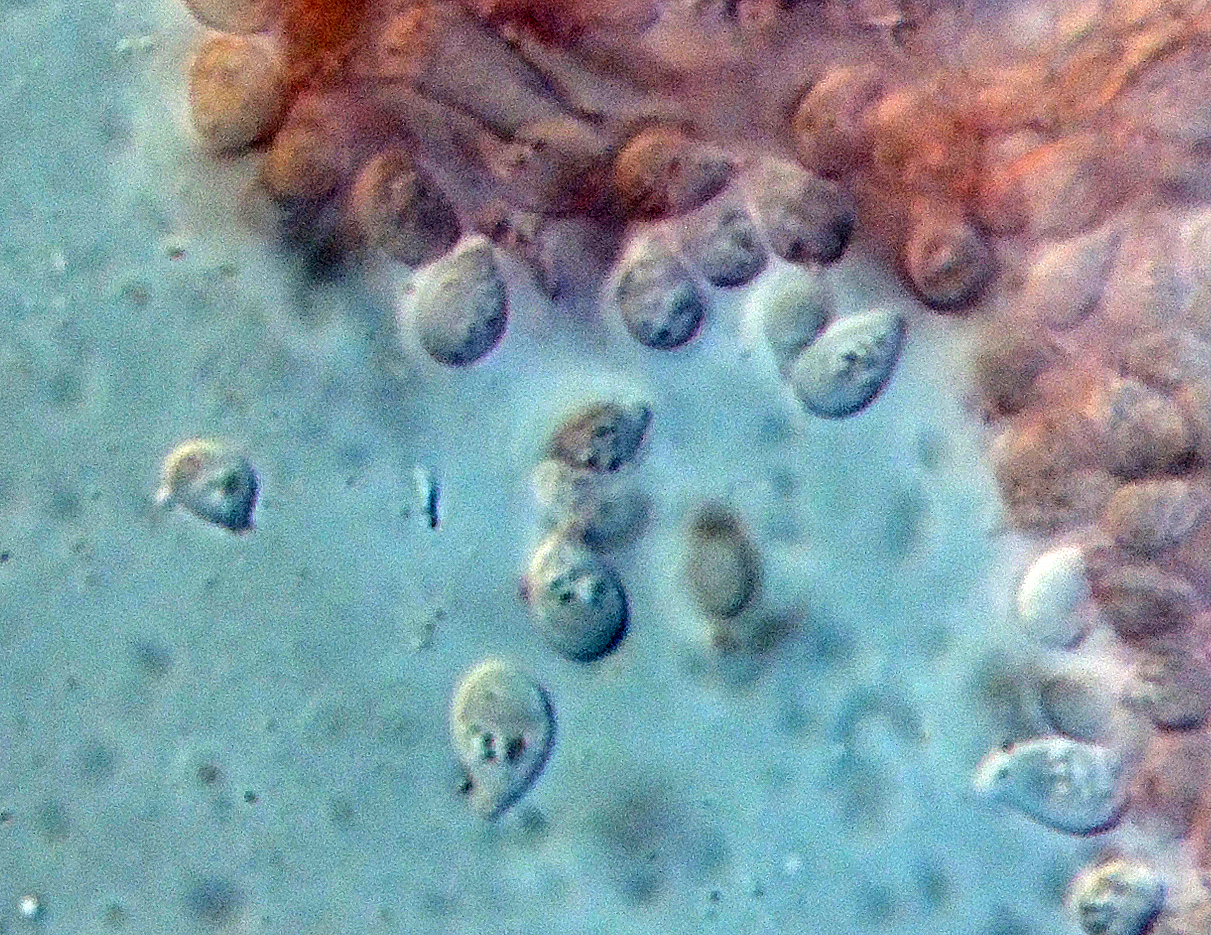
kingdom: Fungi
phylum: Basidiomycota
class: Agaricomycetes
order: Agaricales
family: Tricholomataceae
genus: Clitocybe
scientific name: Clitocybe costata
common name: brunstokket tragthat
